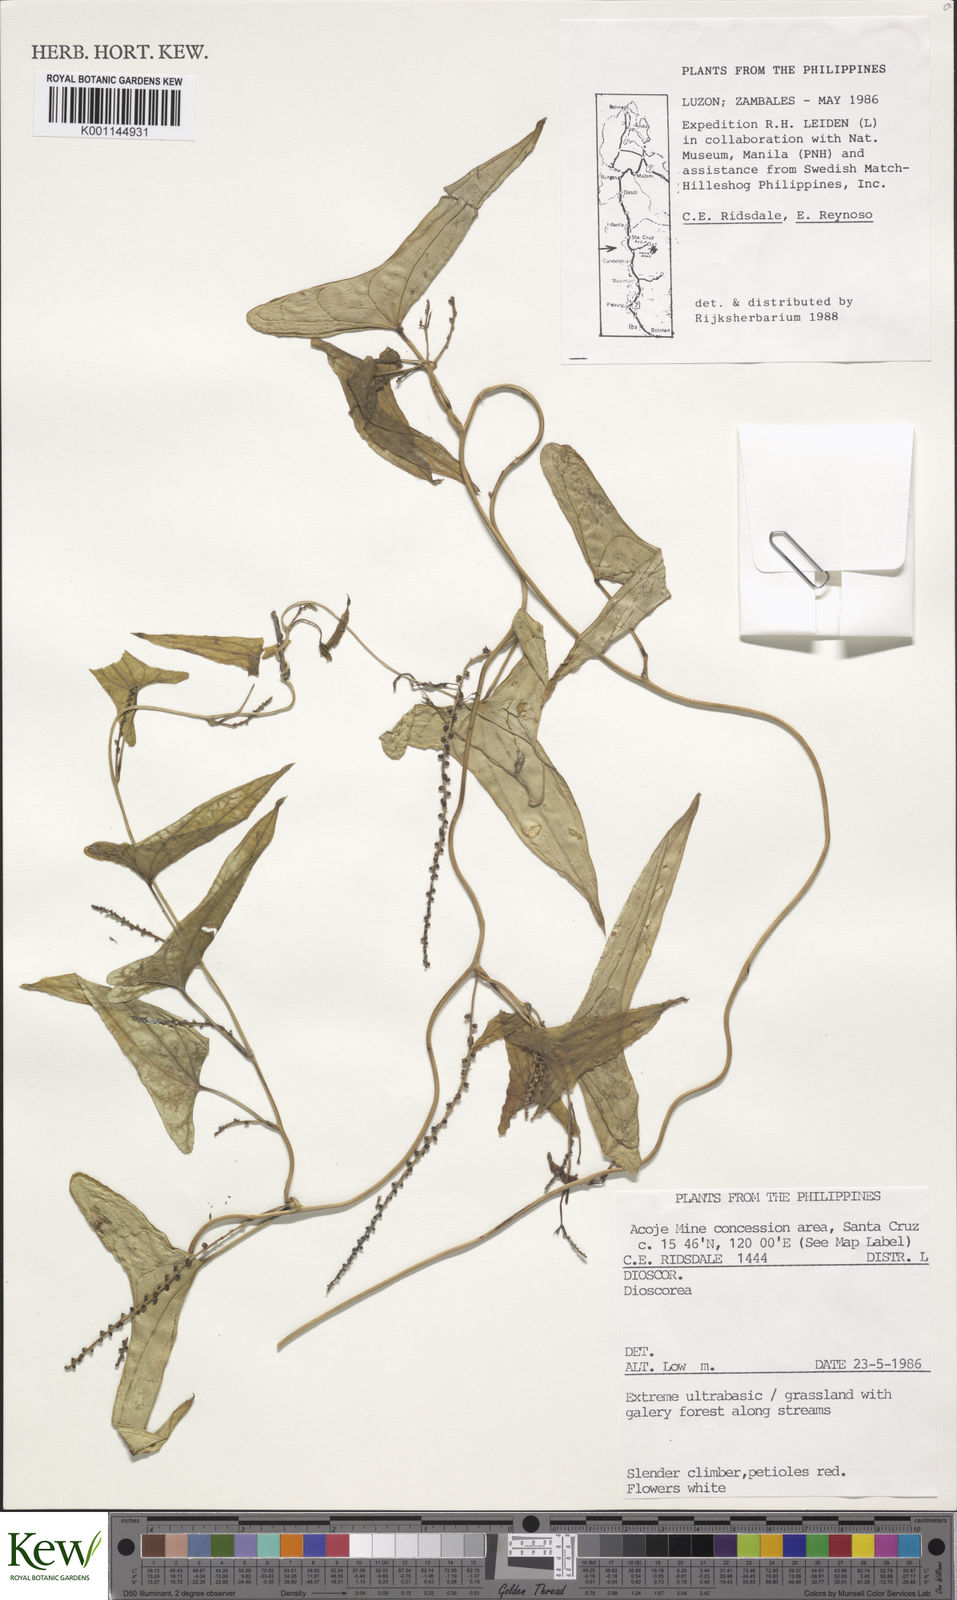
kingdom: Plantae
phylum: Tracheophyta
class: Liliopsida
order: Dioscoreales
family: Dioscoreaceae
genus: Dioscorea
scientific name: Dioscorea
